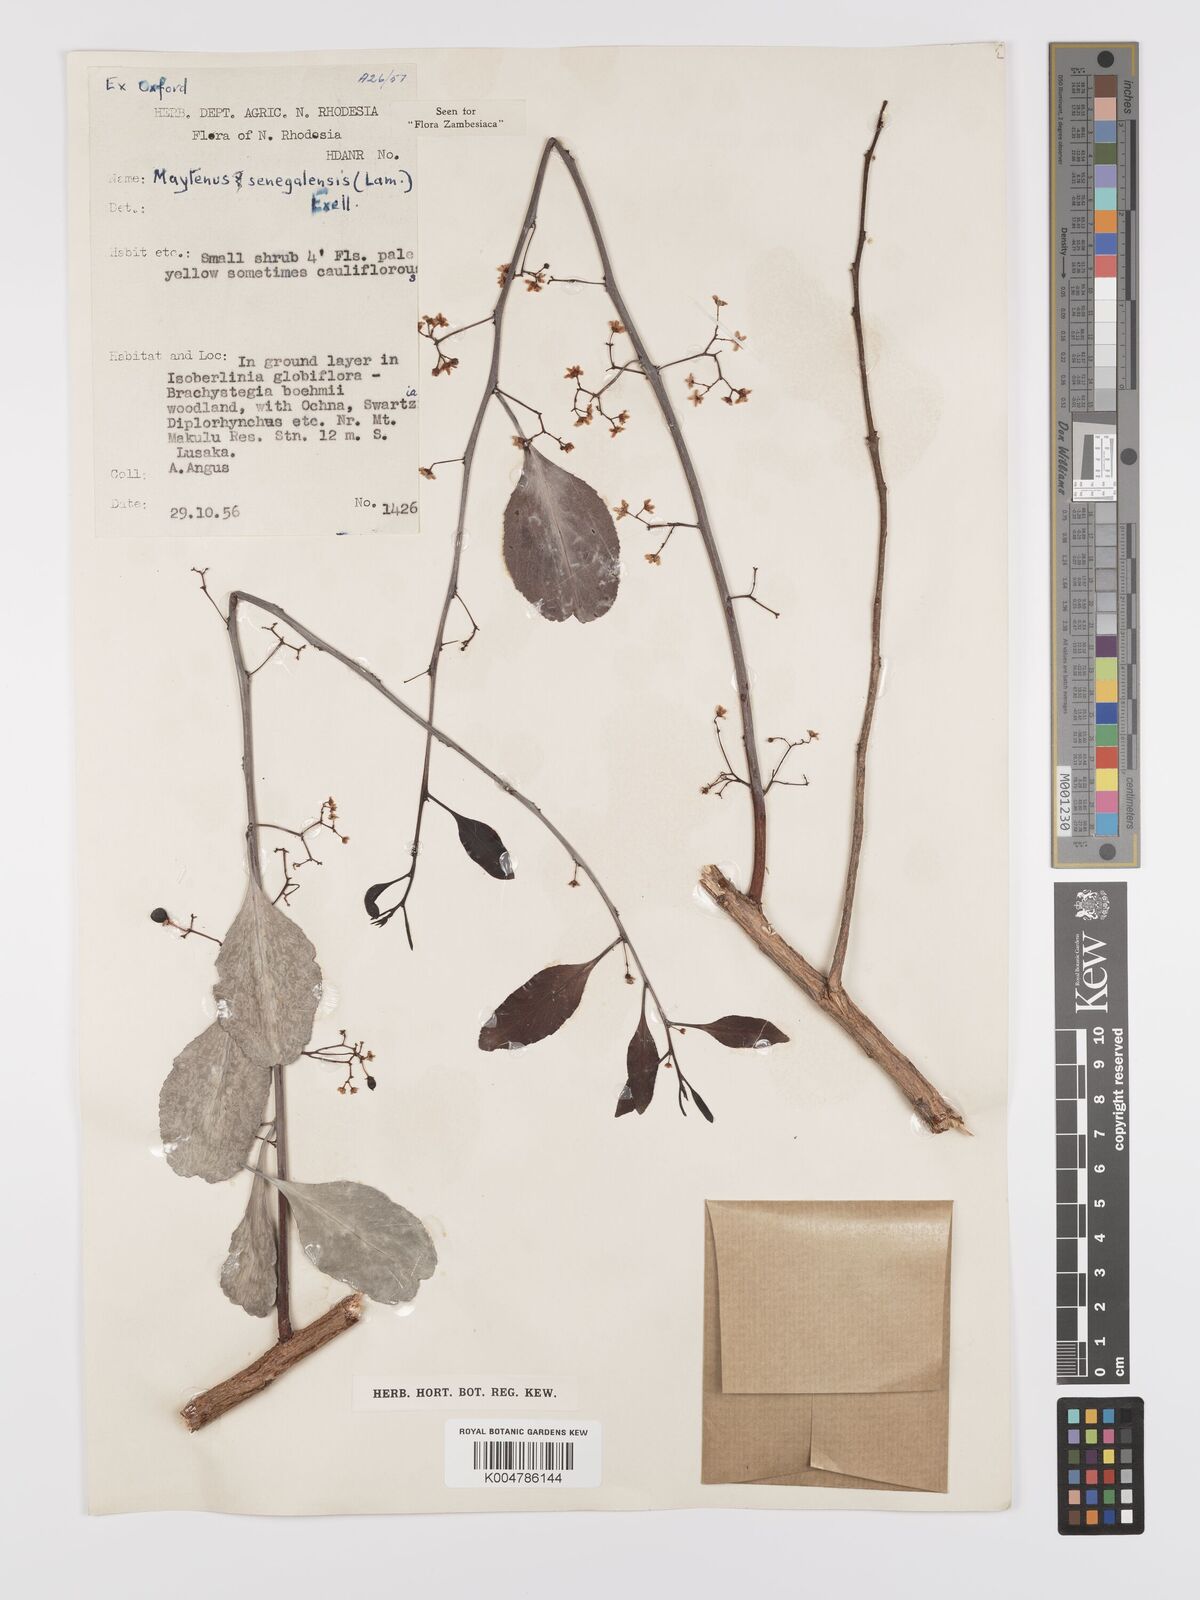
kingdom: Plantae
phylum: Tracheophyta
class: Magnoliopsida
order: Celastrales
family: Celastraceae
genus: Gymnosporia
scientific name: Gymnosporia senegalensis
